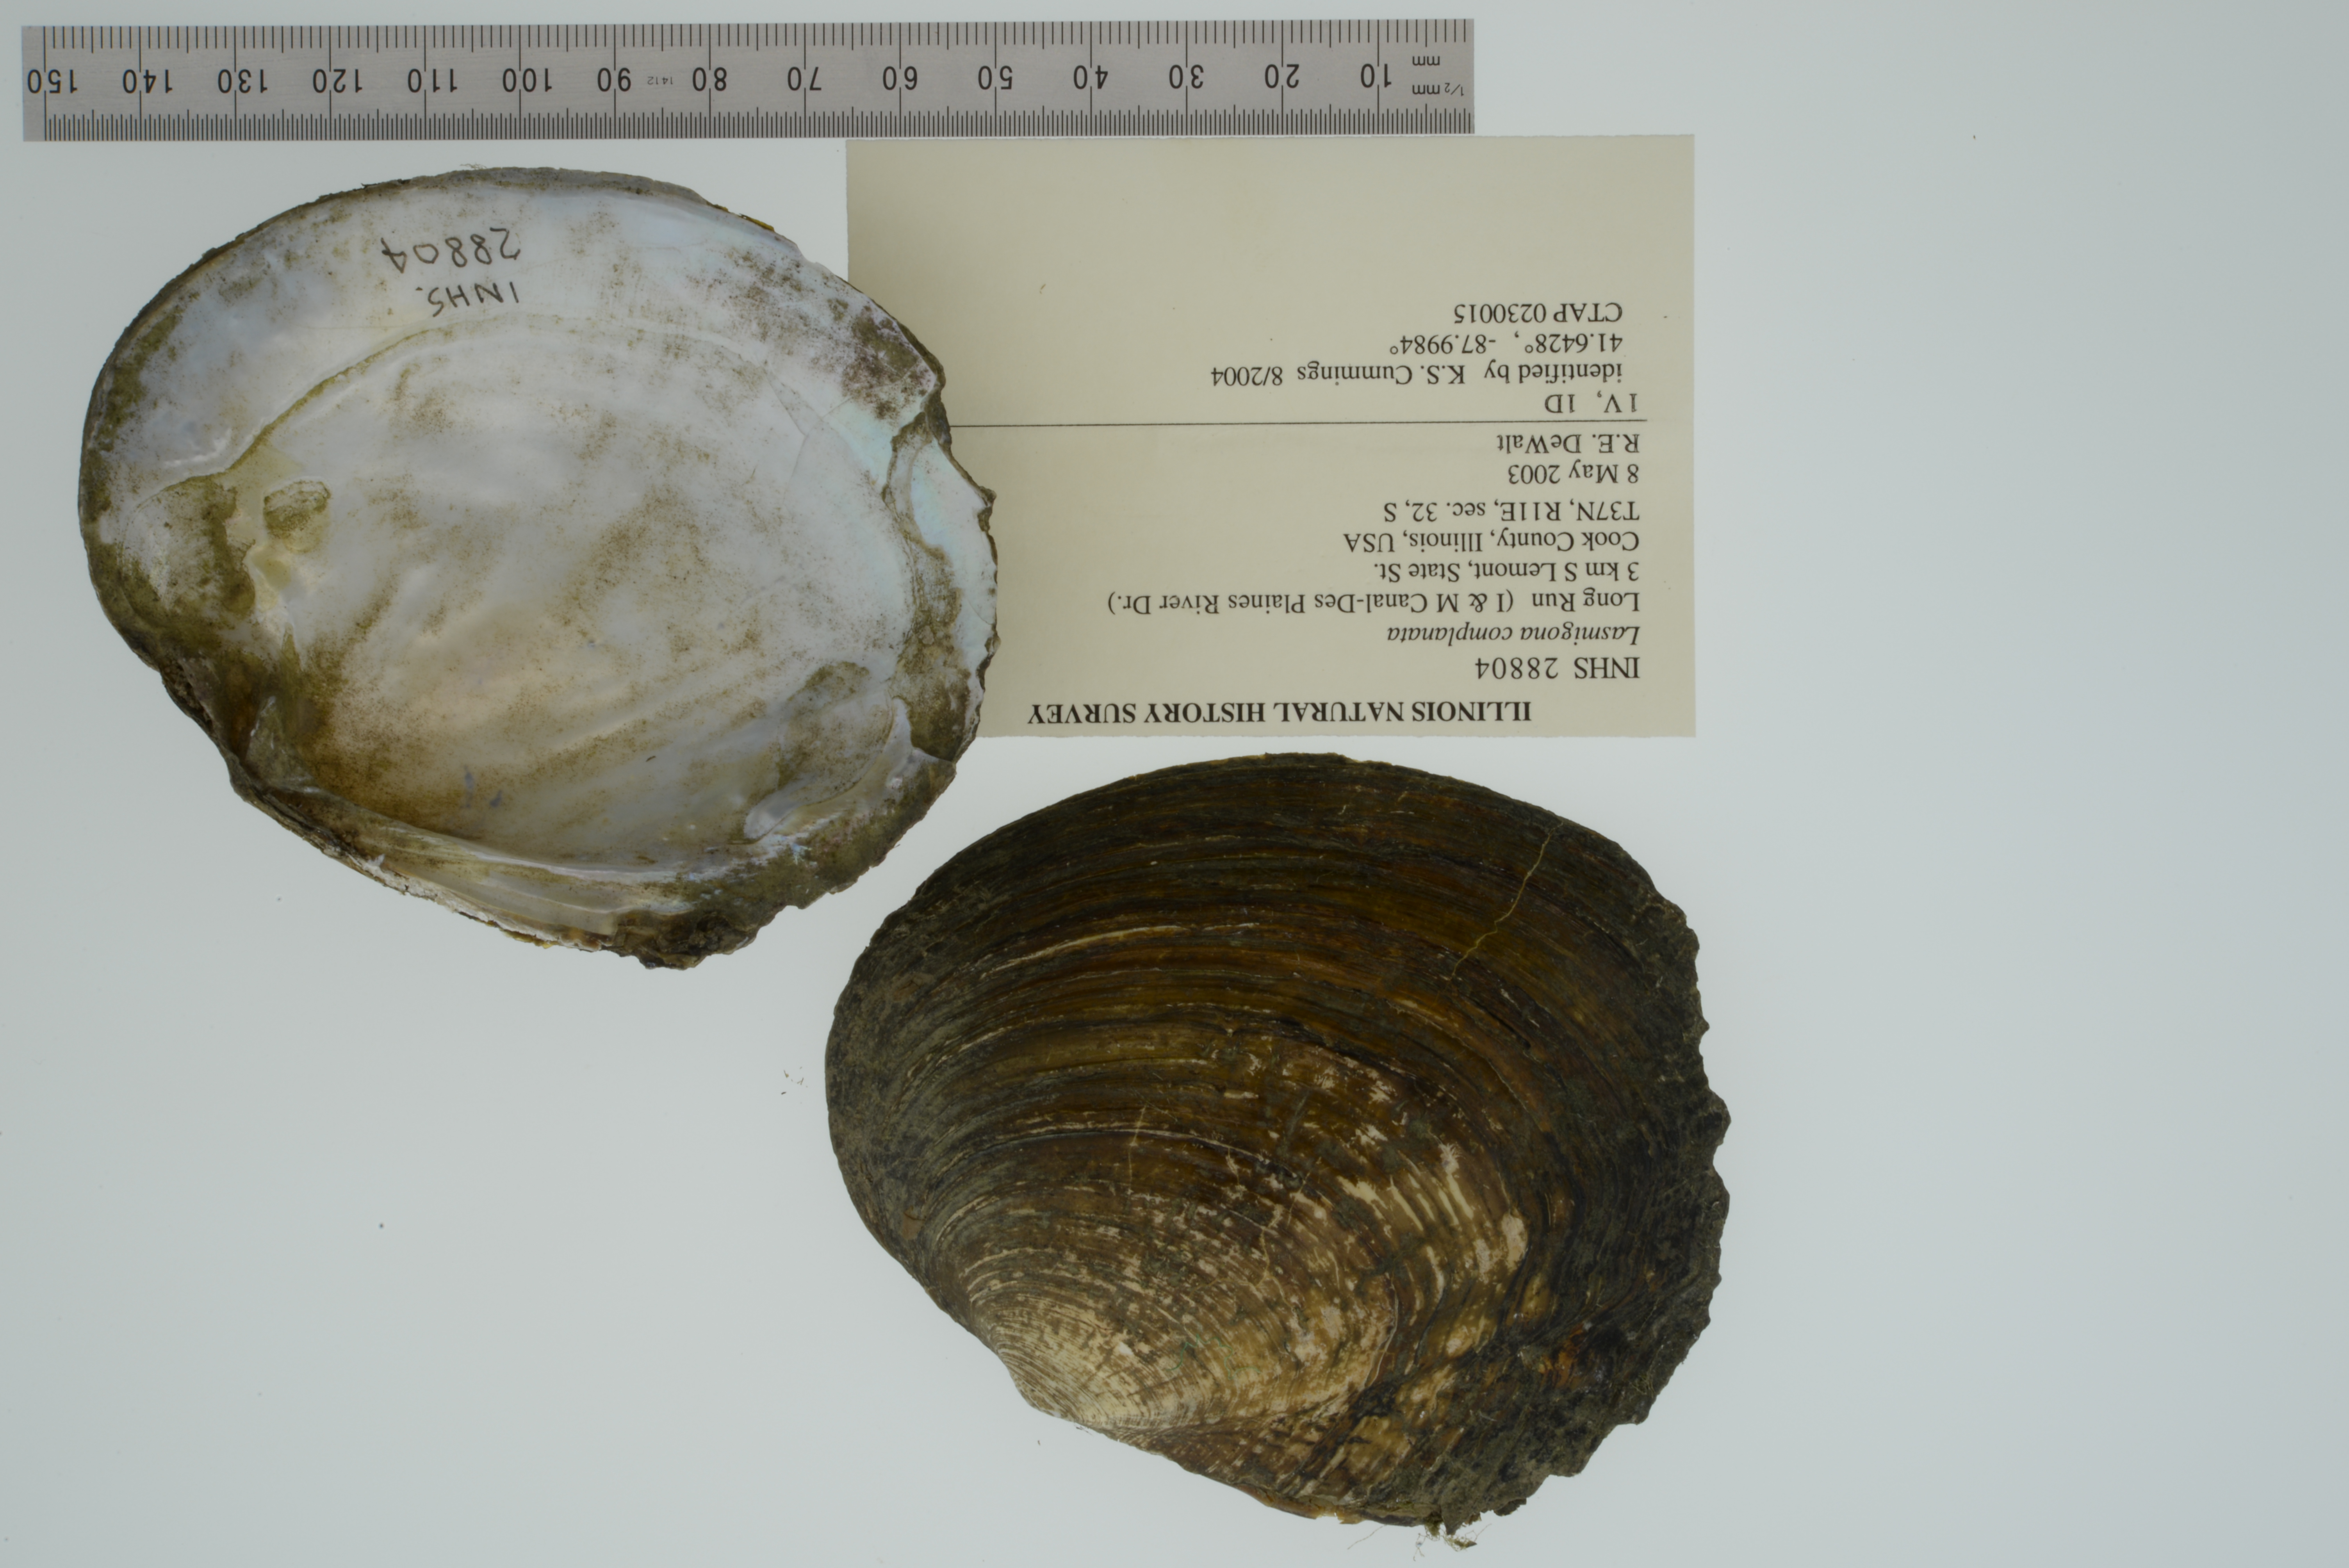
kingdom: Animalia
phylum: Mollusca
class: Bivalvia
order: Unionida
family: Unionidae
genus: Lasmigona
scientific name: Lasmigona complanata
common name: White heelsplitter
